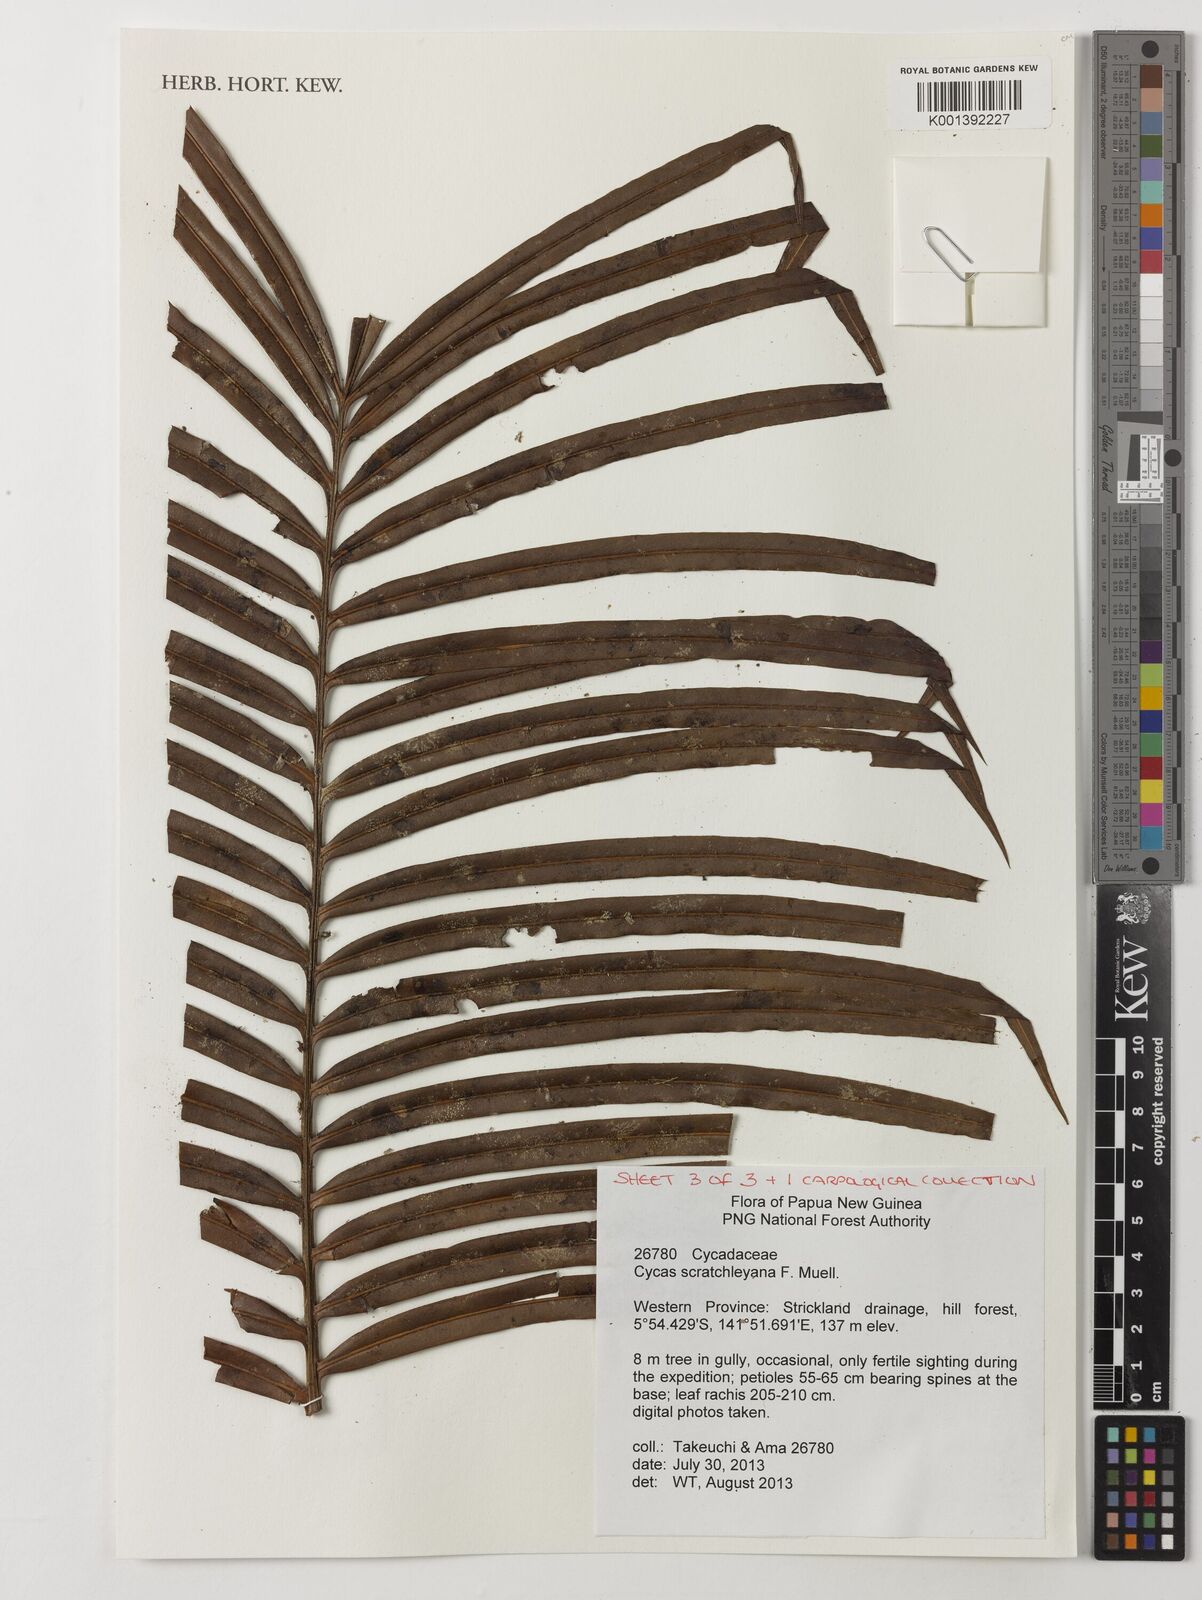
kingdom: Plantae
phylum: Tracheophyta
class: Cycadopsida
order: Cycadales
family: Cycadaceae
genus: Cycas
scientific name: Cycas scratchleyana
